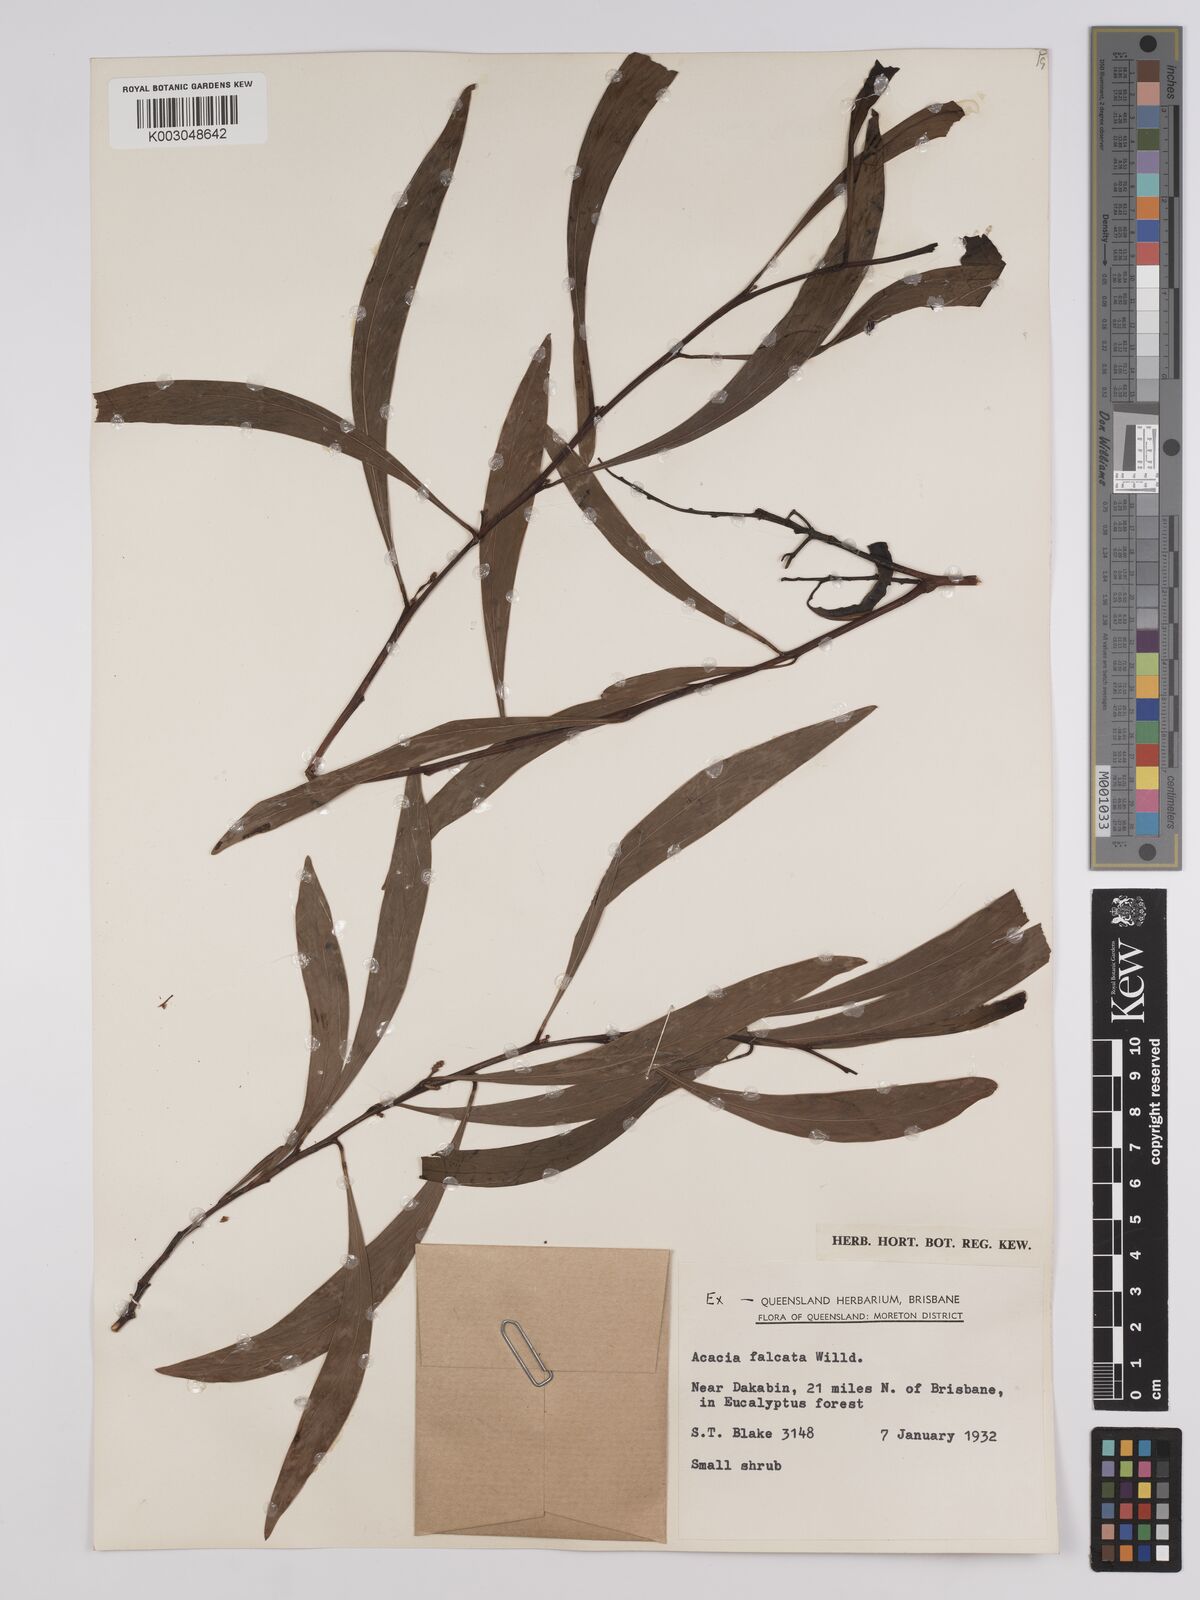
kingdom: Plantae
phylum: Tracheophyta
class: Magnoliopsida
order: Fabales
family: Fabaceae
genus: Acacia
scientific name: Acacia falcata
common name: Burra acacia
